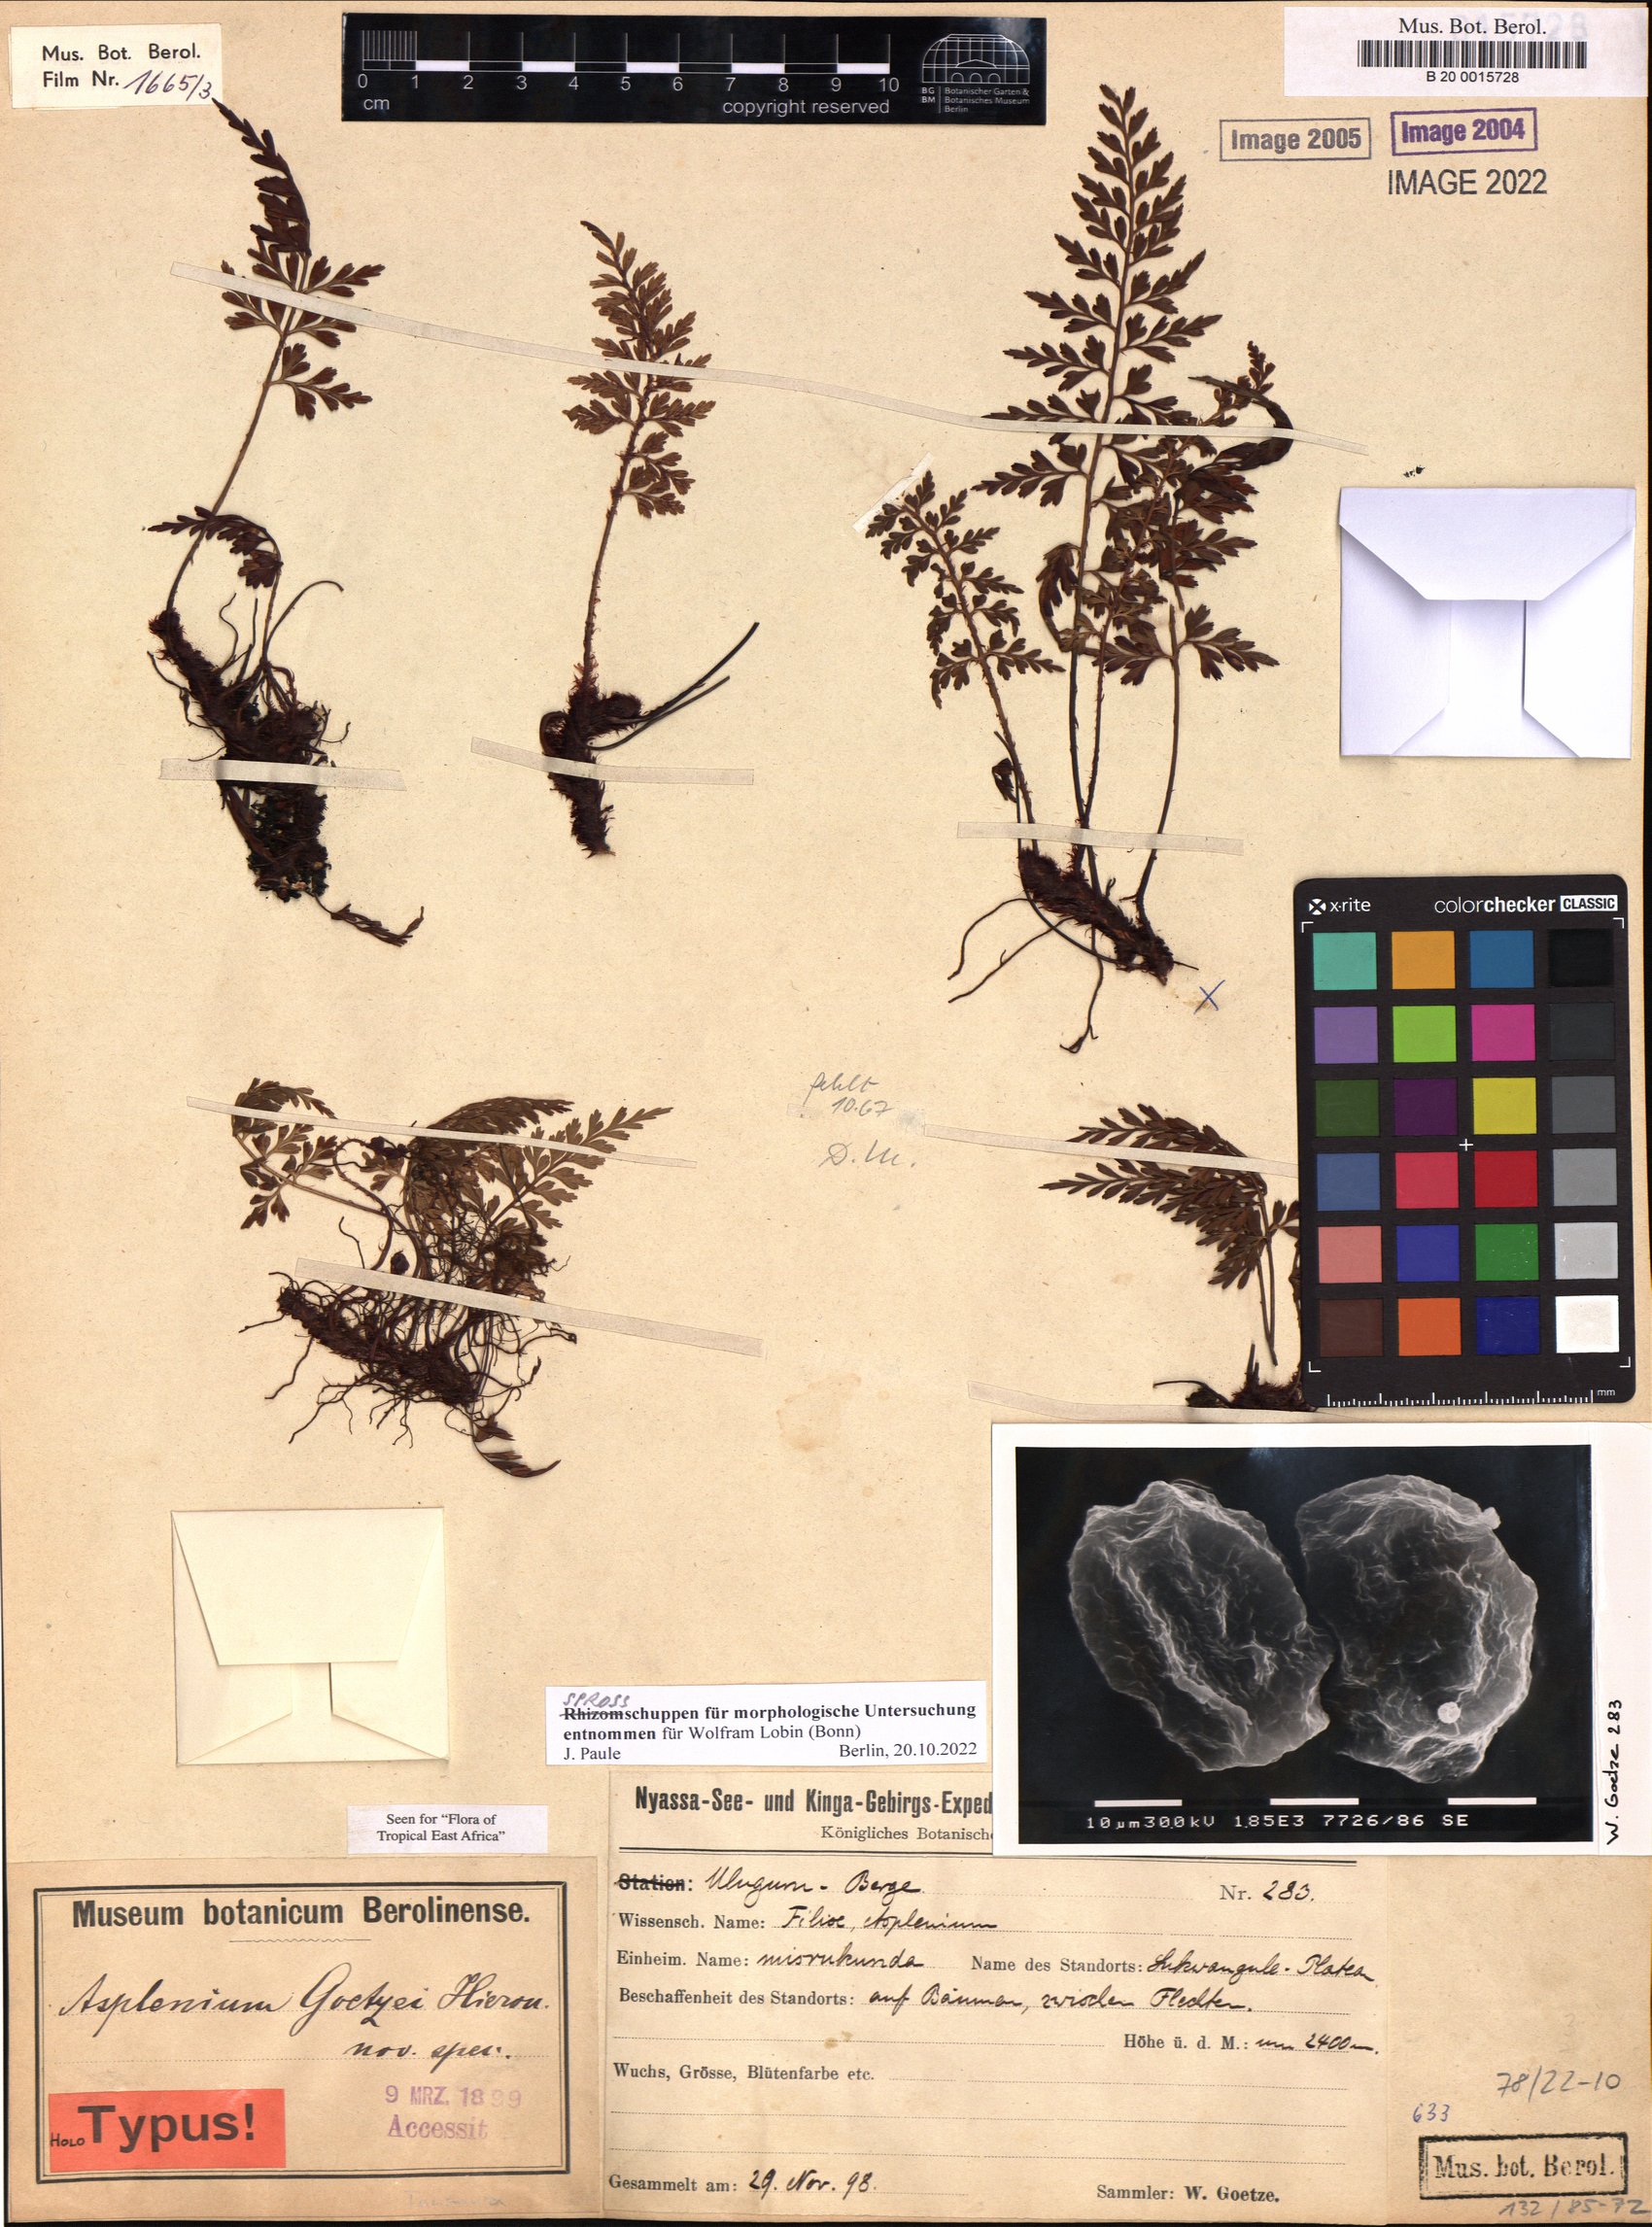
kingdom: Plantae
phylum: Tracheophyta
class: Polypodiopsida
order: Polypodiales
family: Aspleniaceae
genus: Asplenium
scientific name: Asplenium goetzii
